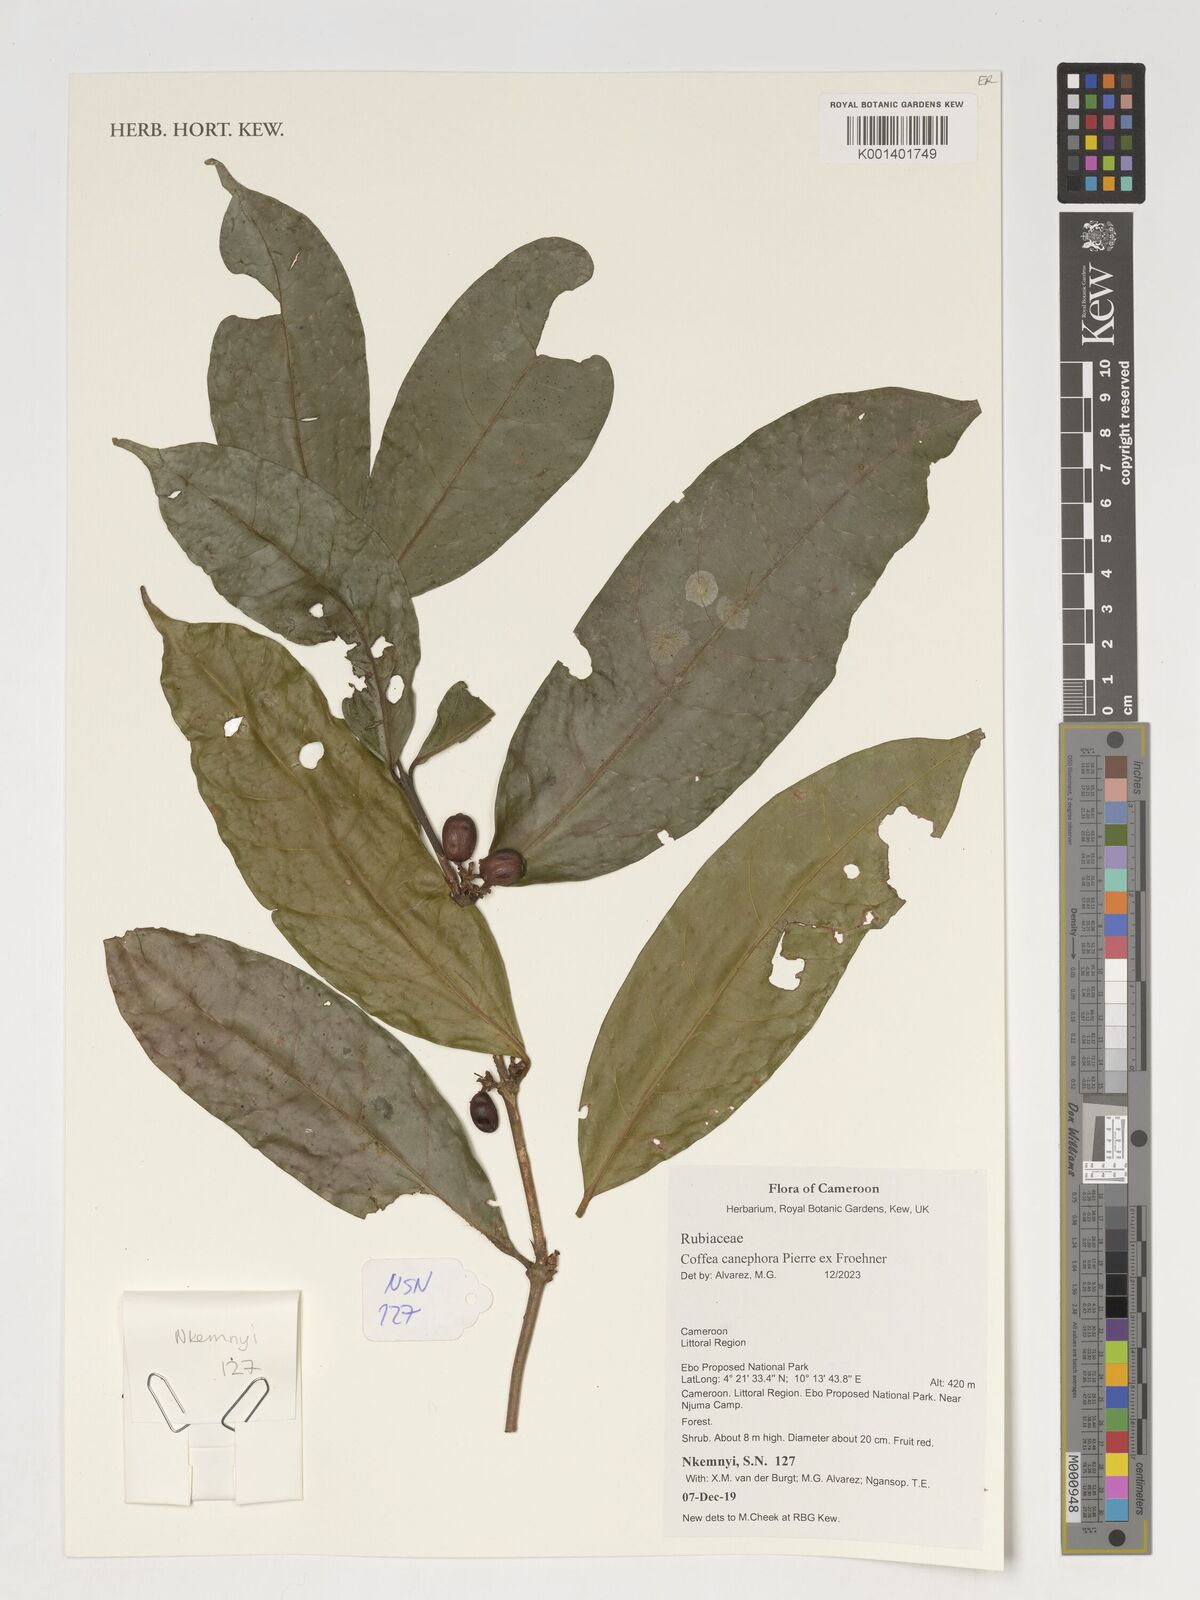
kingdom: Plantae
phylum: Tracheophyta
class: Magnoliopsida
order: Gentianales
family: Rubiaceae
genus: Coffea
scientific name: Coffea canephora
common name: Robusta coffee
